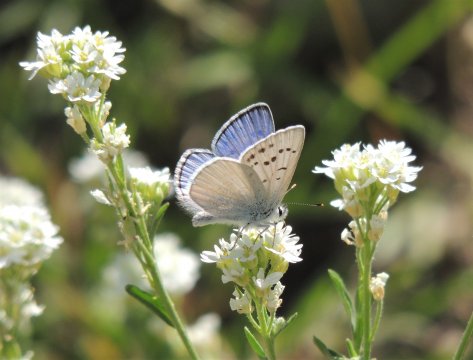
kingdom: Animalia
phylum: Arthropoda
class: Insecta
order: Lepidoptera
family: Lycaenidae
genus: Lycaena
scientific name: Lycaena heteronea
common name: Blue Copper
